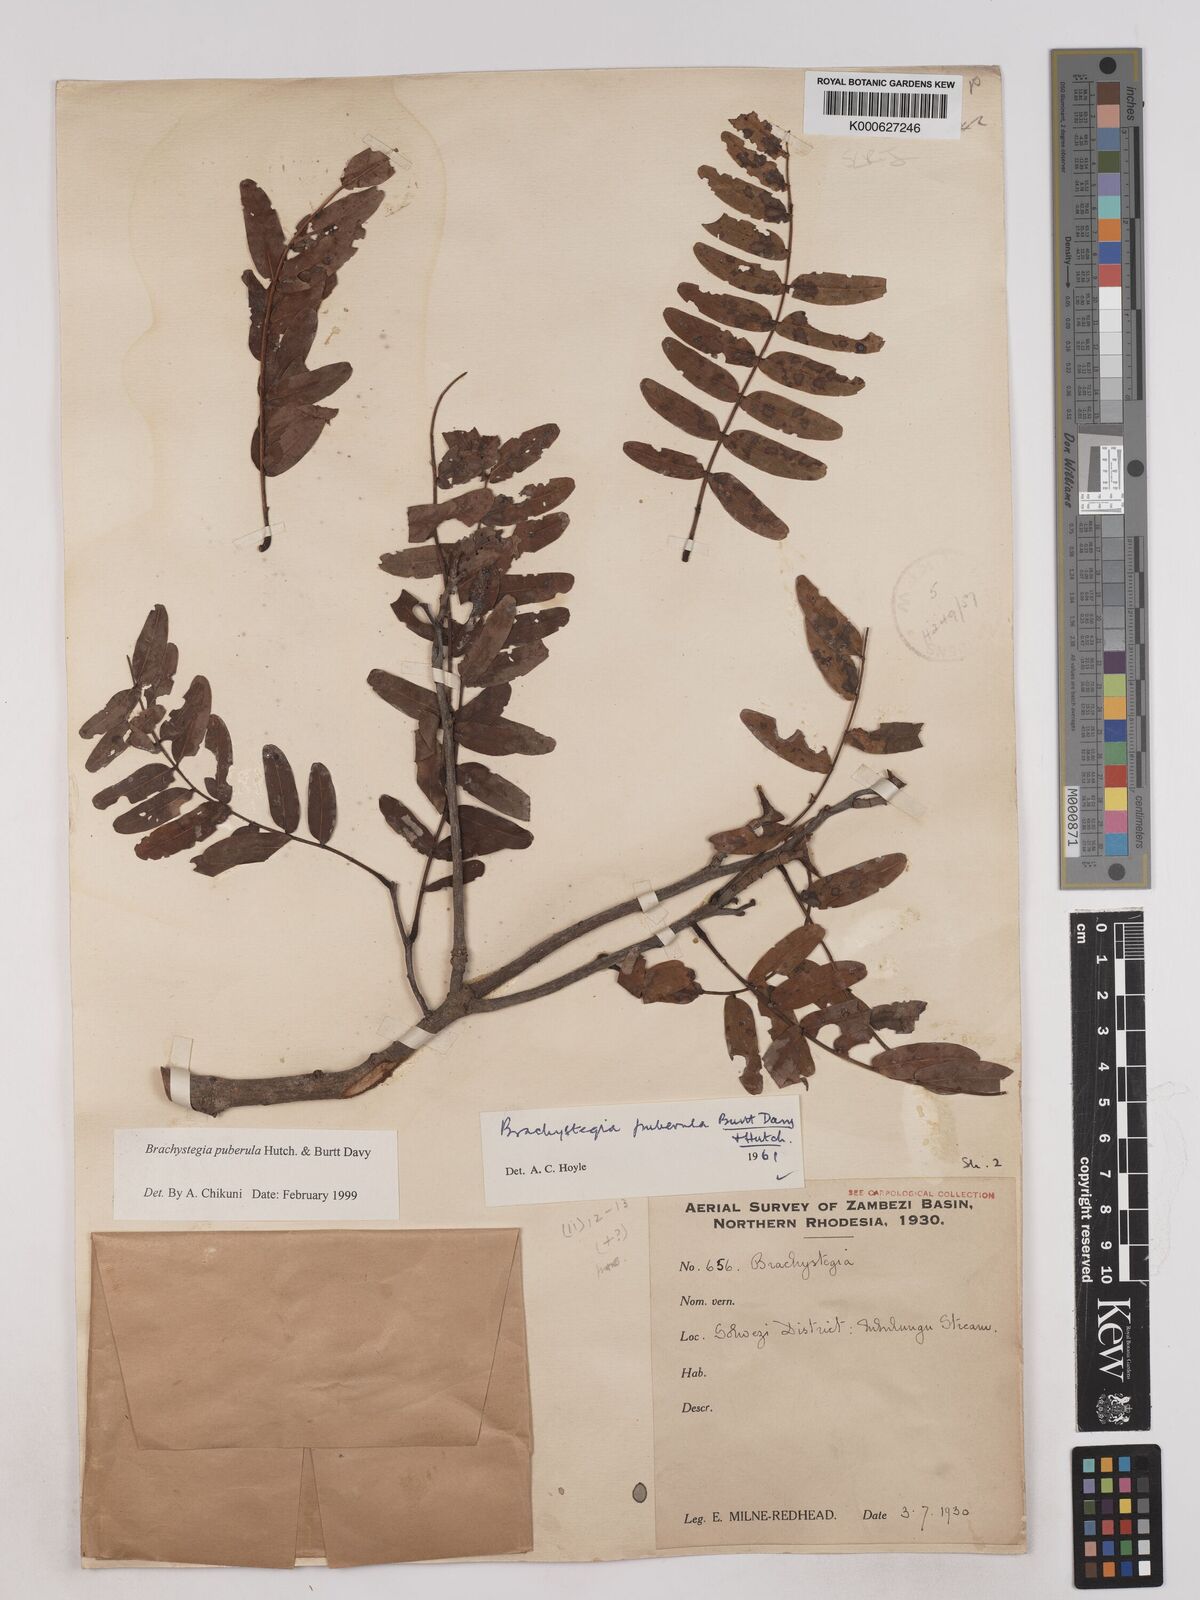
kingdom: Plantae
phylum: Tracheophyta
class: Magnoliopsida
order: Fabales
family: Fabaceae
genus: Brachystegia
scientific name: Brachystegia puberula
